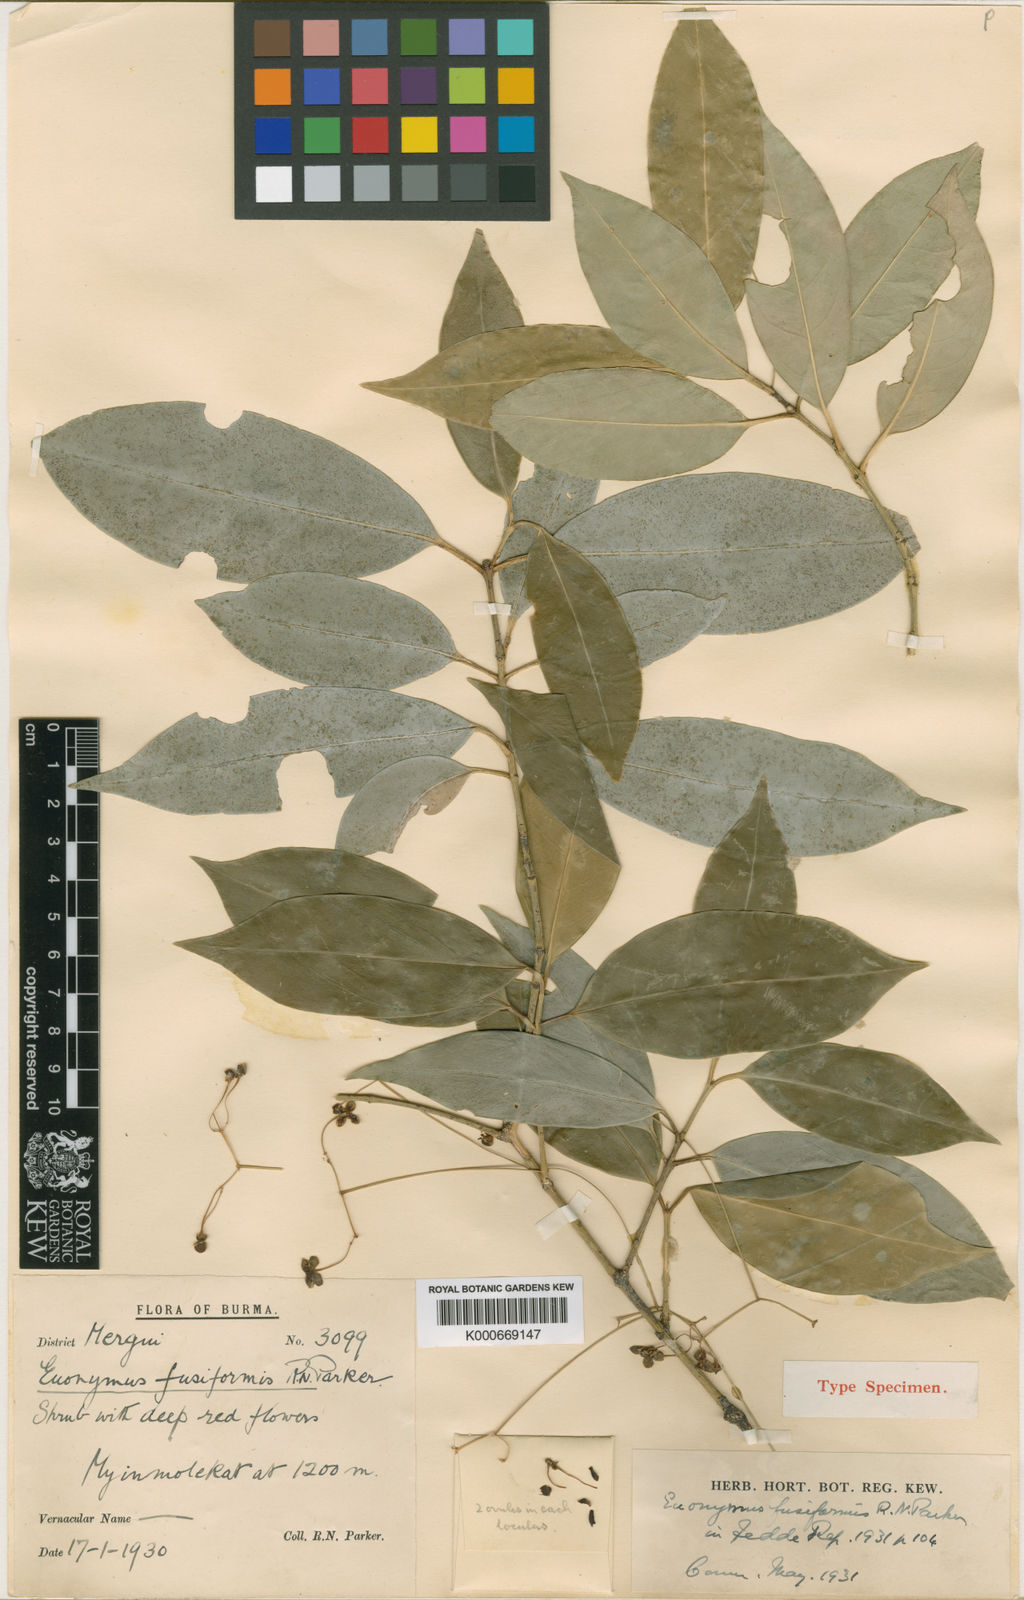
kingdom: Plantae
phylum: Tracheophyta
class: Magnoliopsida
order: Celastrales
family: Celastraceae
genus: Euonymus
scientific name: Euonymus fusiformis
